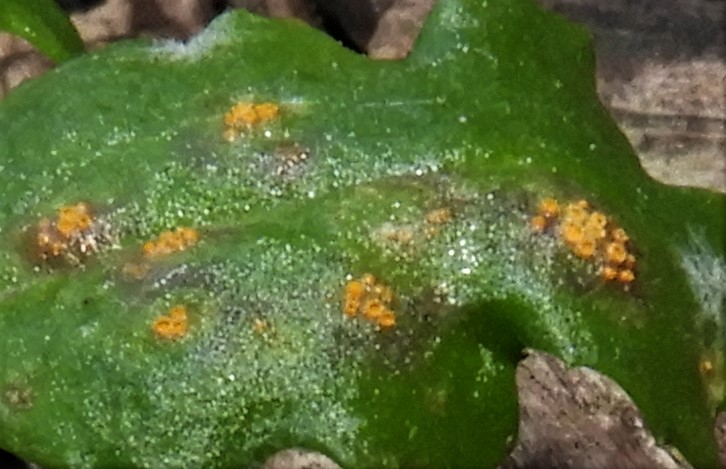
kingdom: Fungi
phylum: Basidiomycota
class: Pucciniomycetes
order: Pucciniales
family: Pucciniaceae
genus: Puccinia
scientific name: Puccinia
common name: tvecellerust
